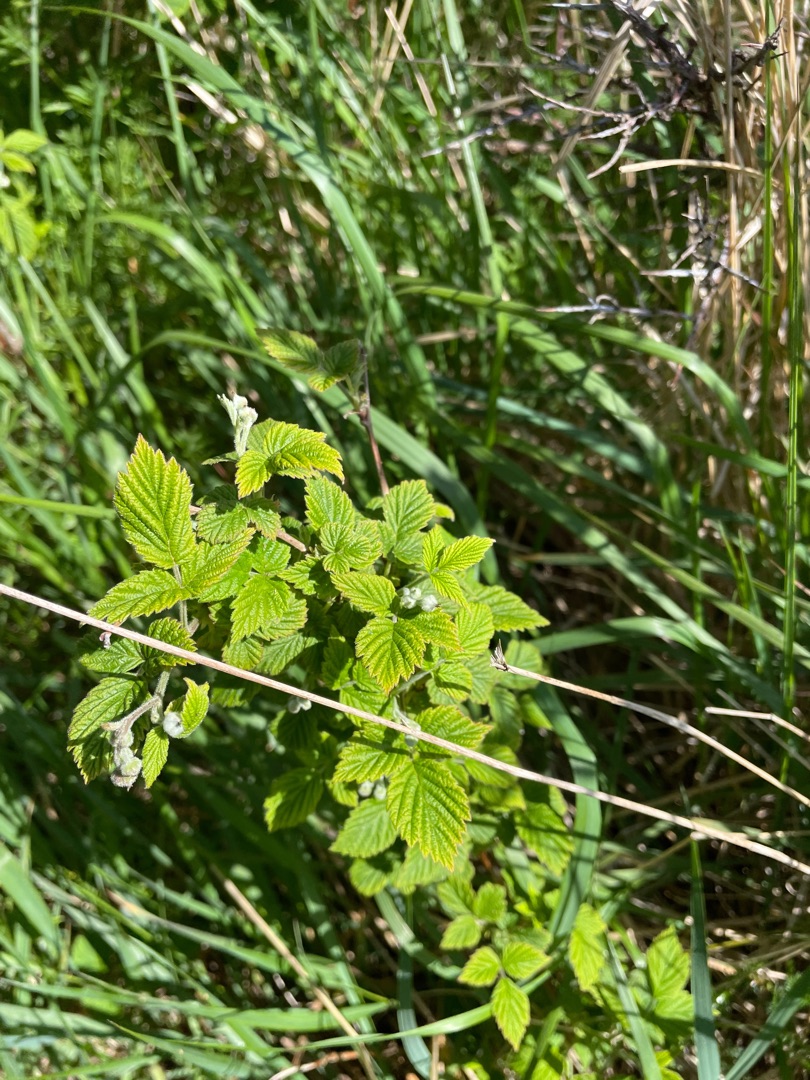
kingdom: Plantae
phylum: Tracheophyta
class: Magnoliopsida
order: Rosales
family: Rosaceae
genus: Rubus
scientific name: Rubus idaeus
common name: Hindbær
